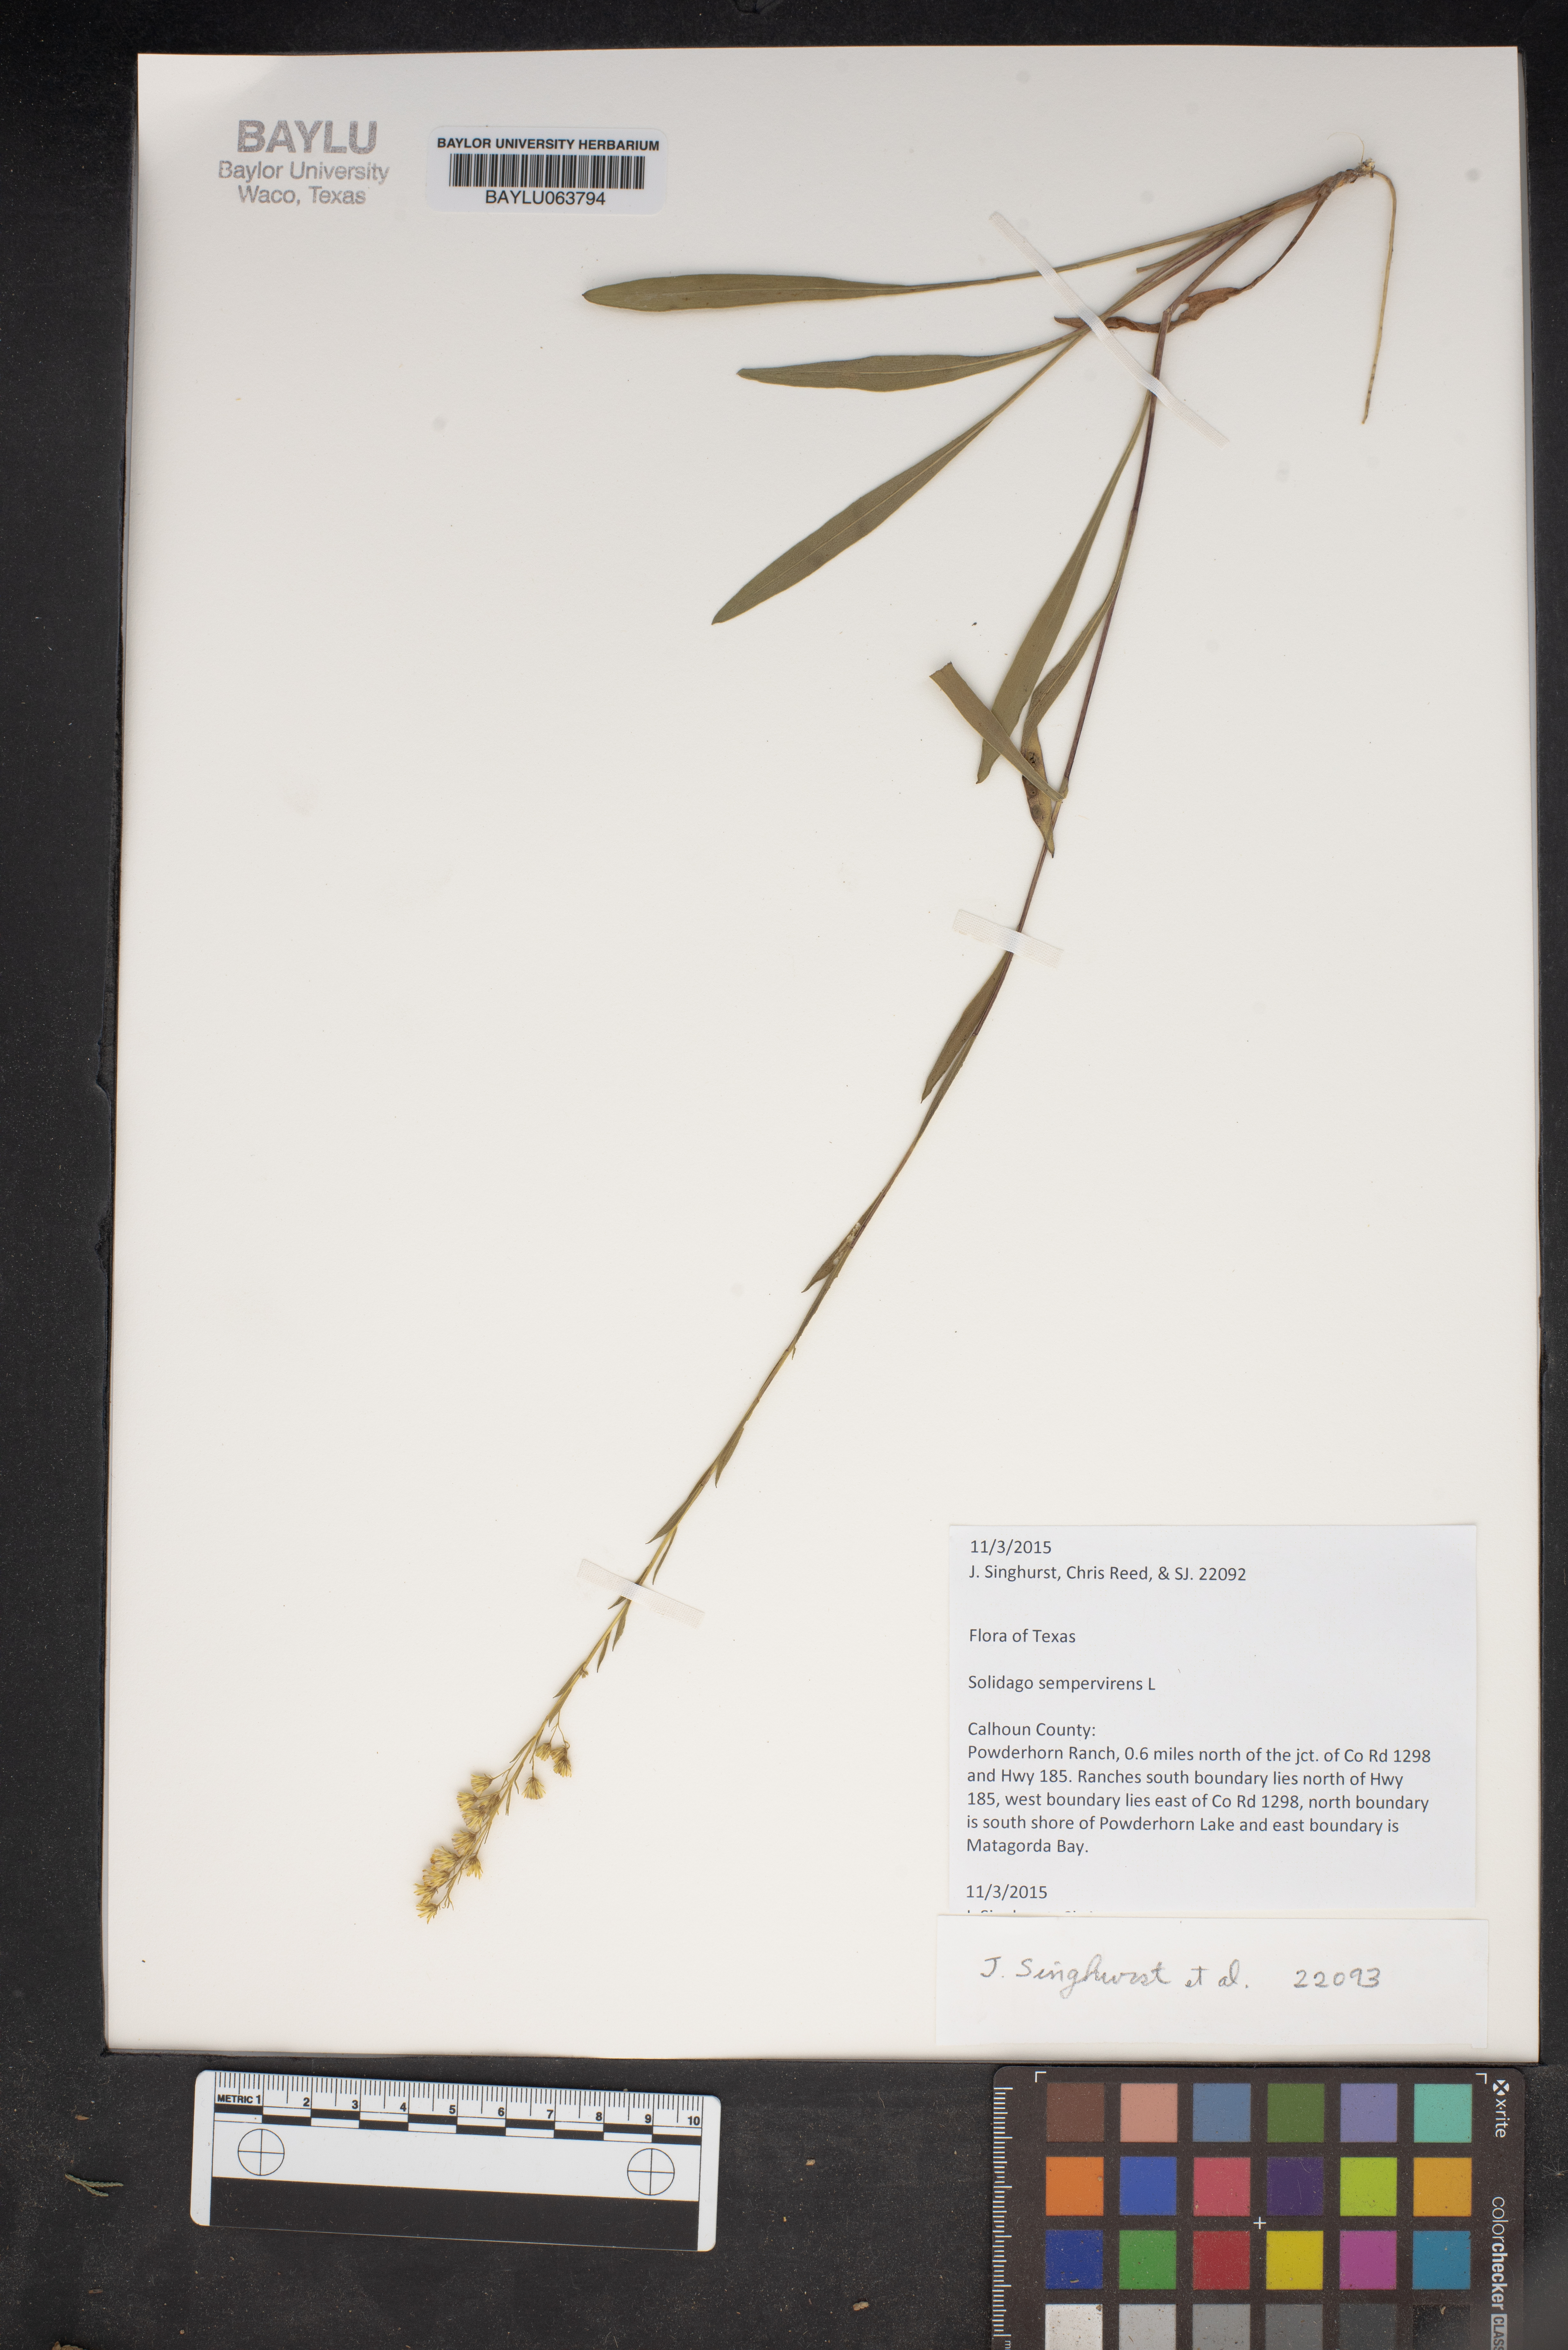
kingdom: Plantae
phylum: Tracheophyta
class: Magnoliopsida
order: Asterales
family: Asteraceae
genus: Solidago
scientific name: Solidago sempervirens
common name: Salt-marsh goldenrod
